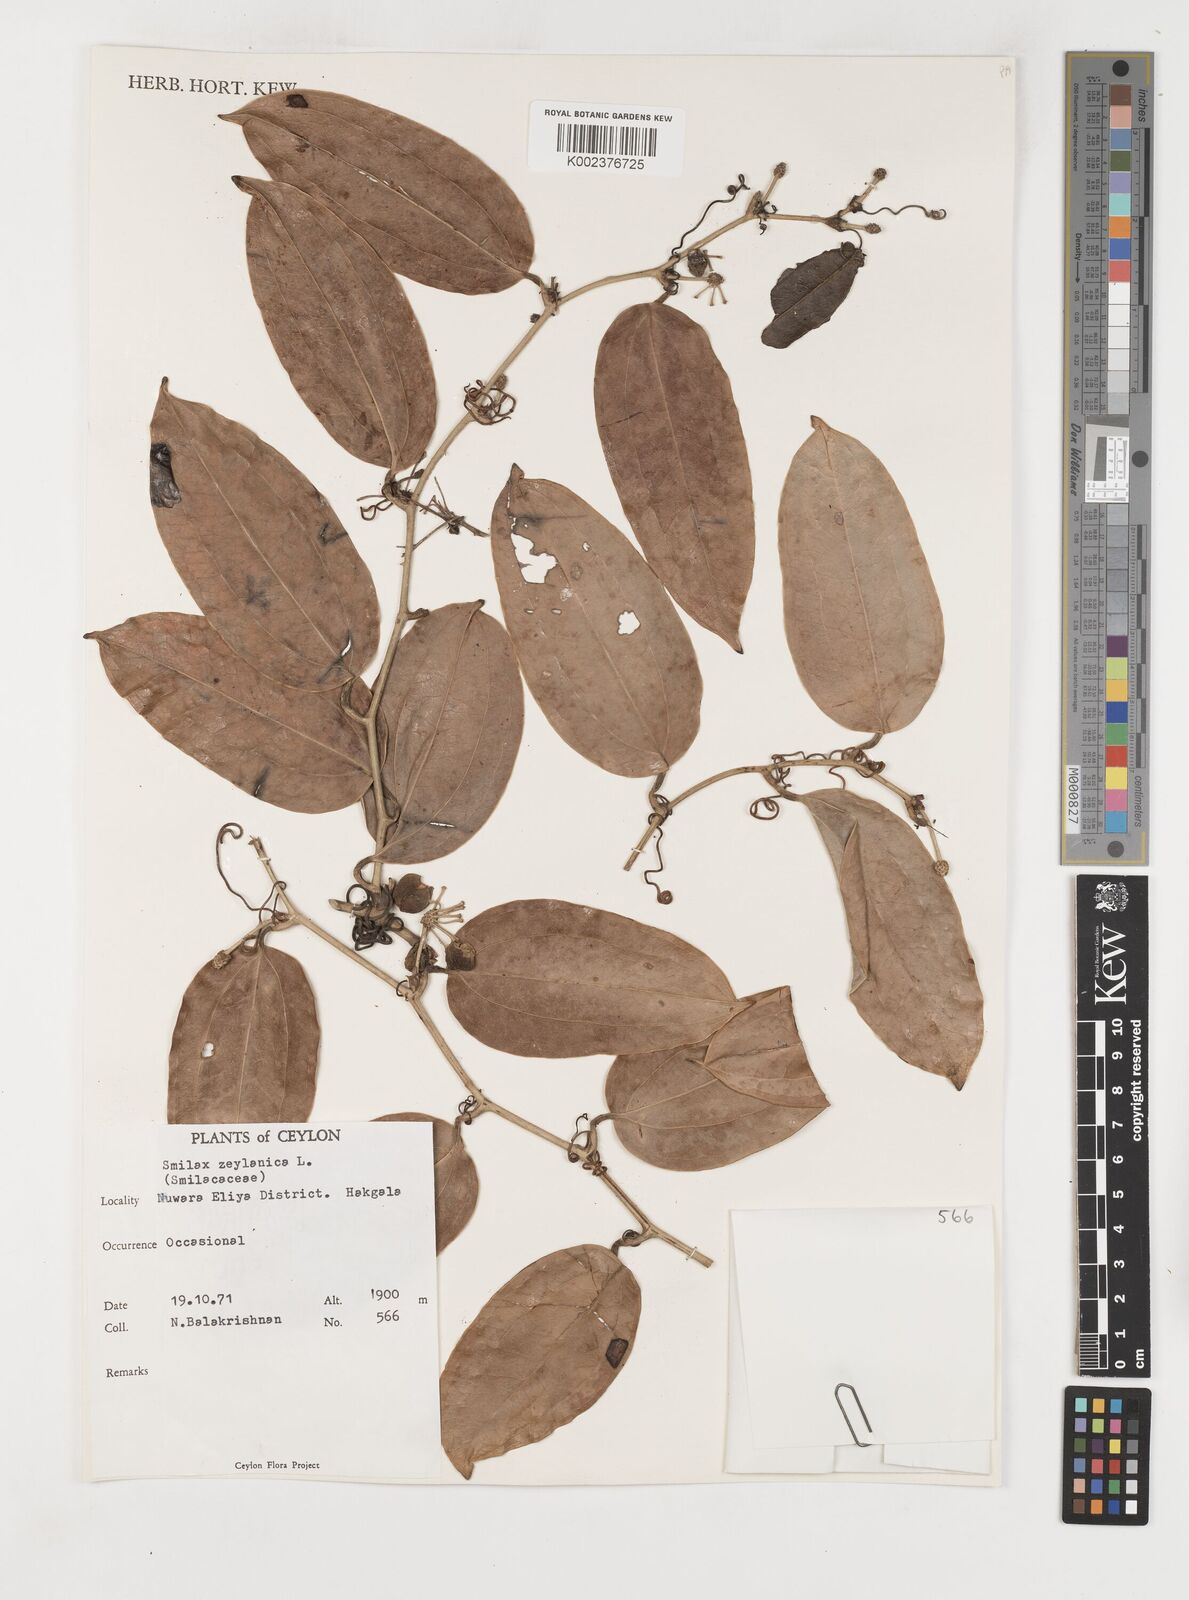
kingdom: Plantae
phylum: Tracheophyta
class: Liliopsida
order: Liliales
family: Smilacaceae
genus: Smilax
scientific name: Smilax zeylanica
